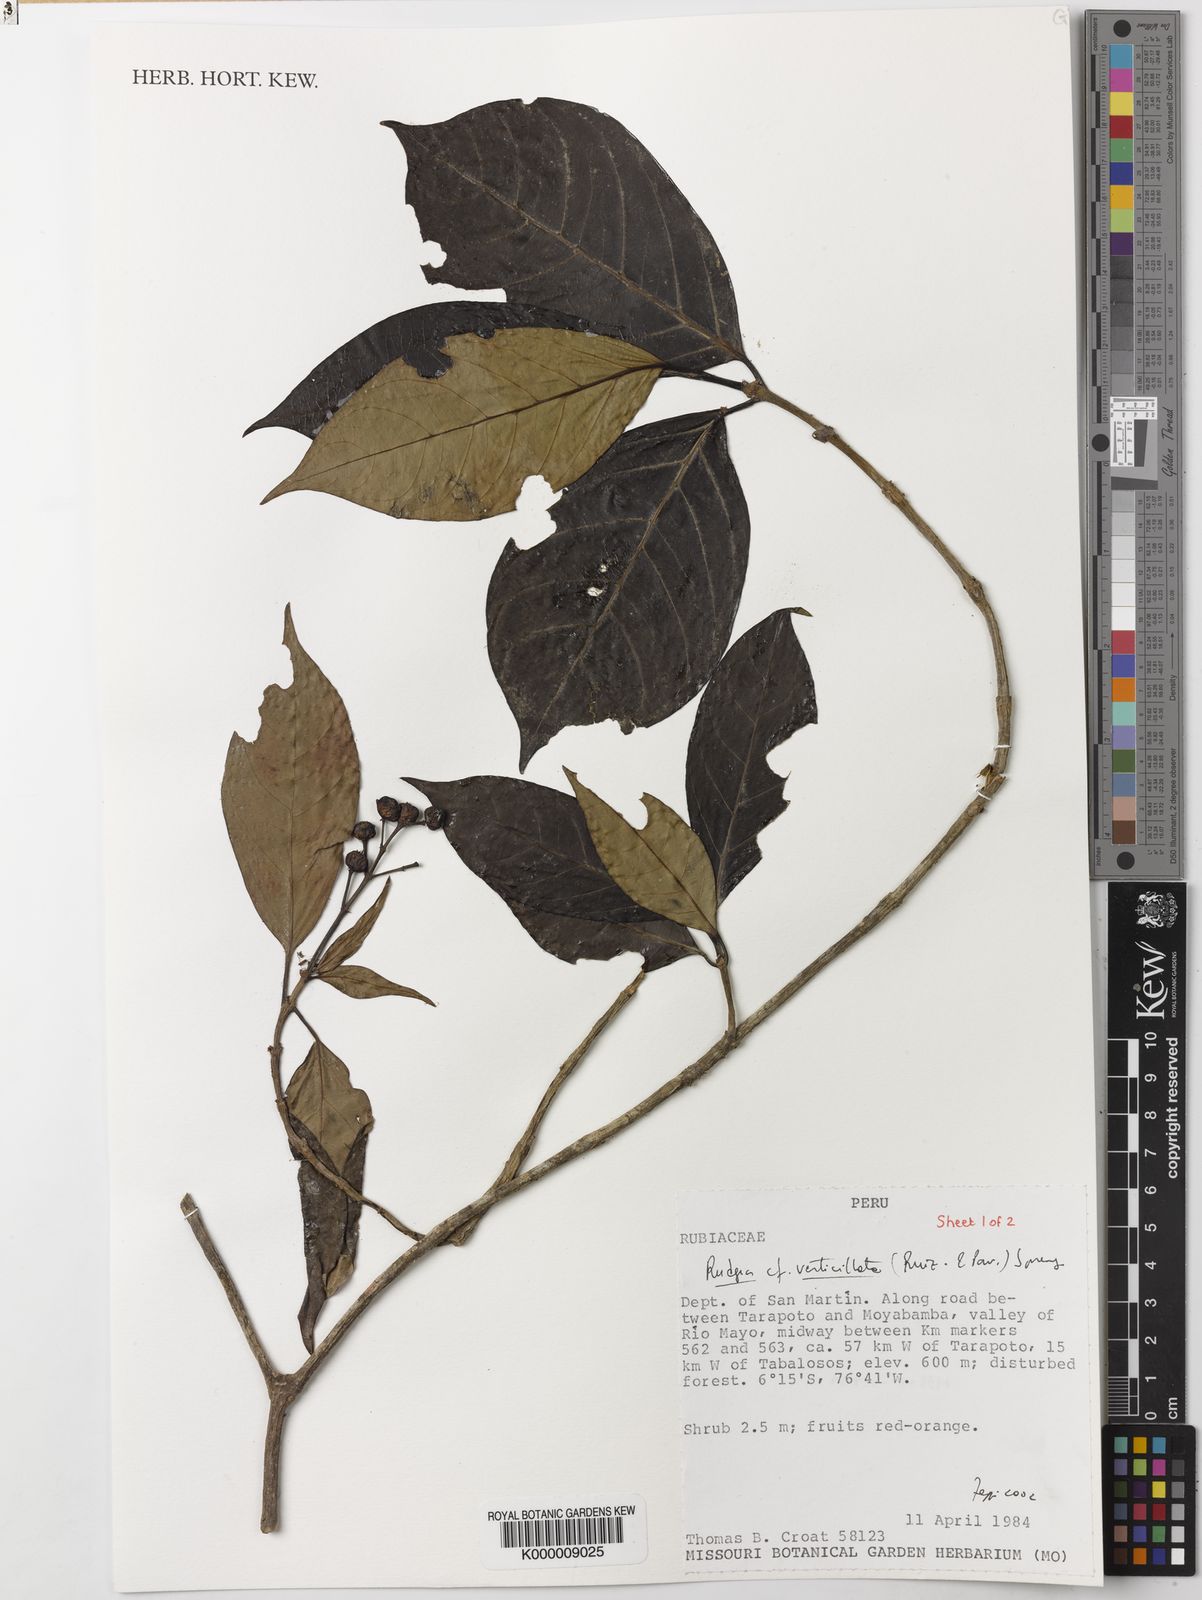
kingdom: Plantae
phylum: Tracheophyta
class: Magnoliopsida
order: Gentianales
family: Rubiaceae
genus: Rudgea
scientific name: Rudgea verticillata
